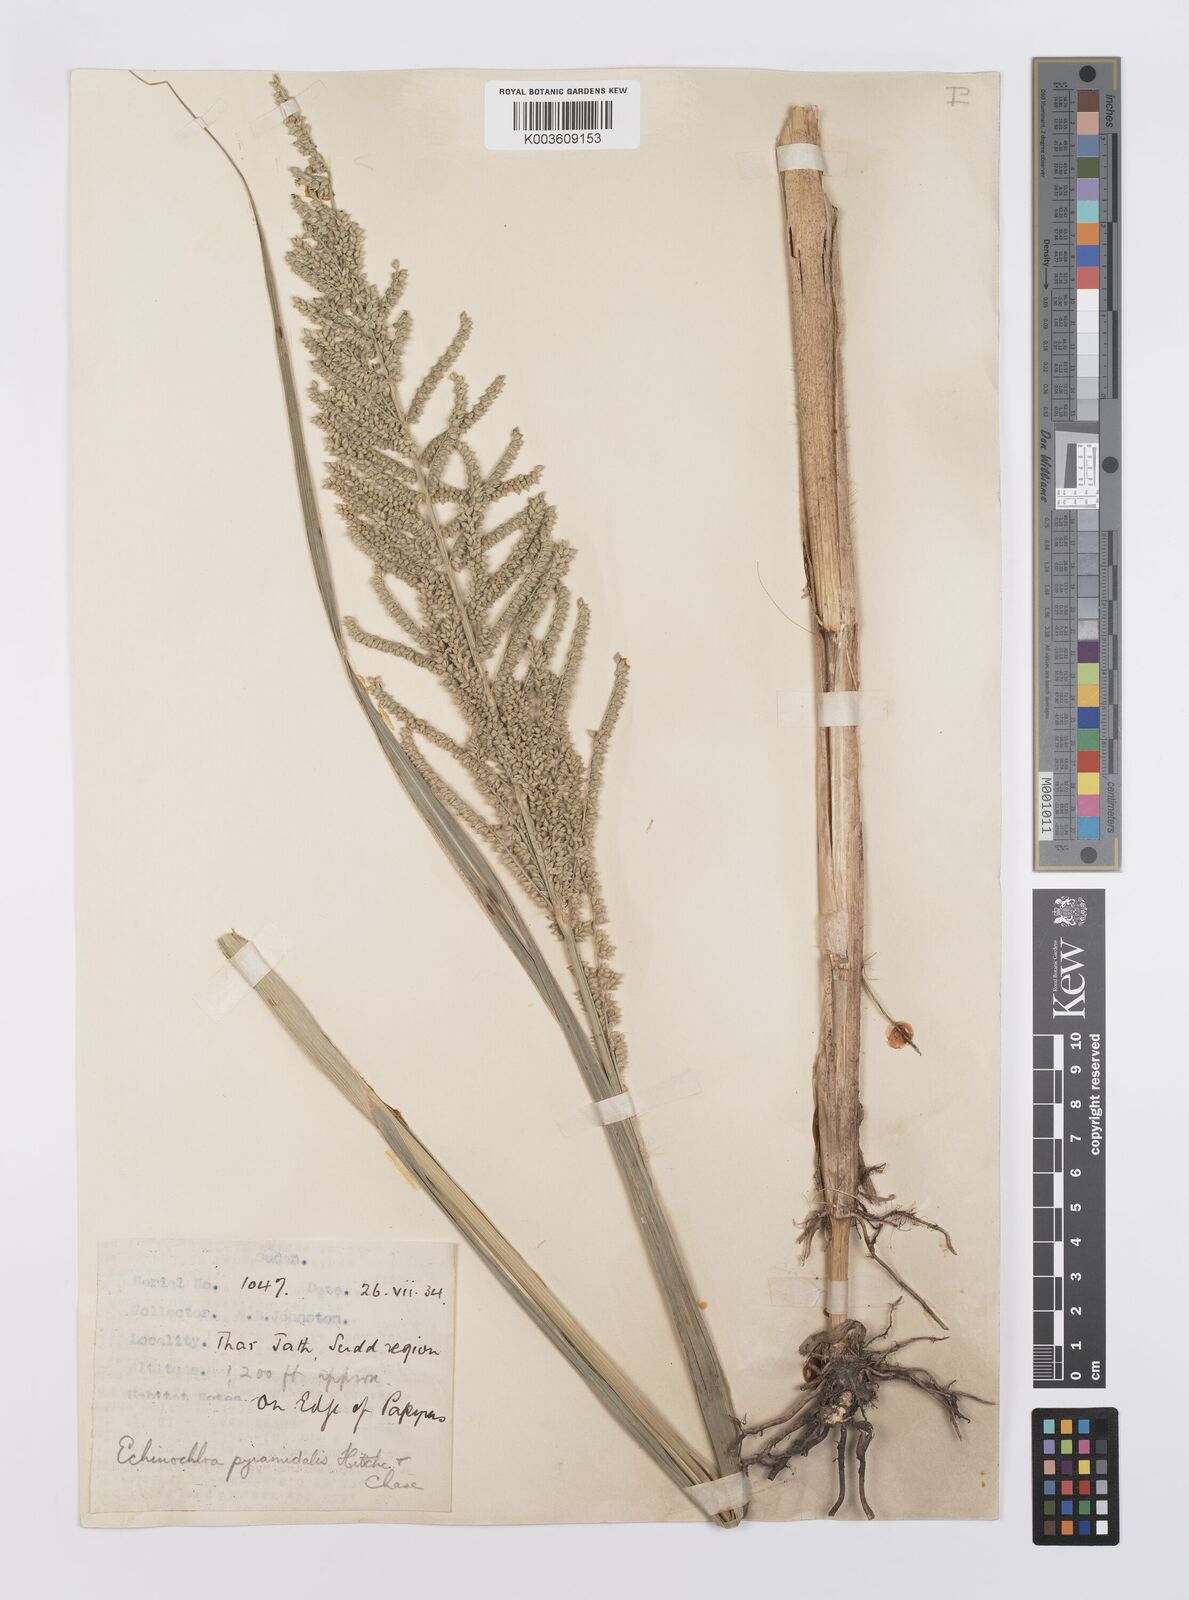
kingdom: Plantae
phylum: Tracheophyta
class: Liliopsida
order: Poales
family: Poaceae
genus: Echinochloa
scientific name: Echinochloa pyramidalis
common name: Antelope grass
